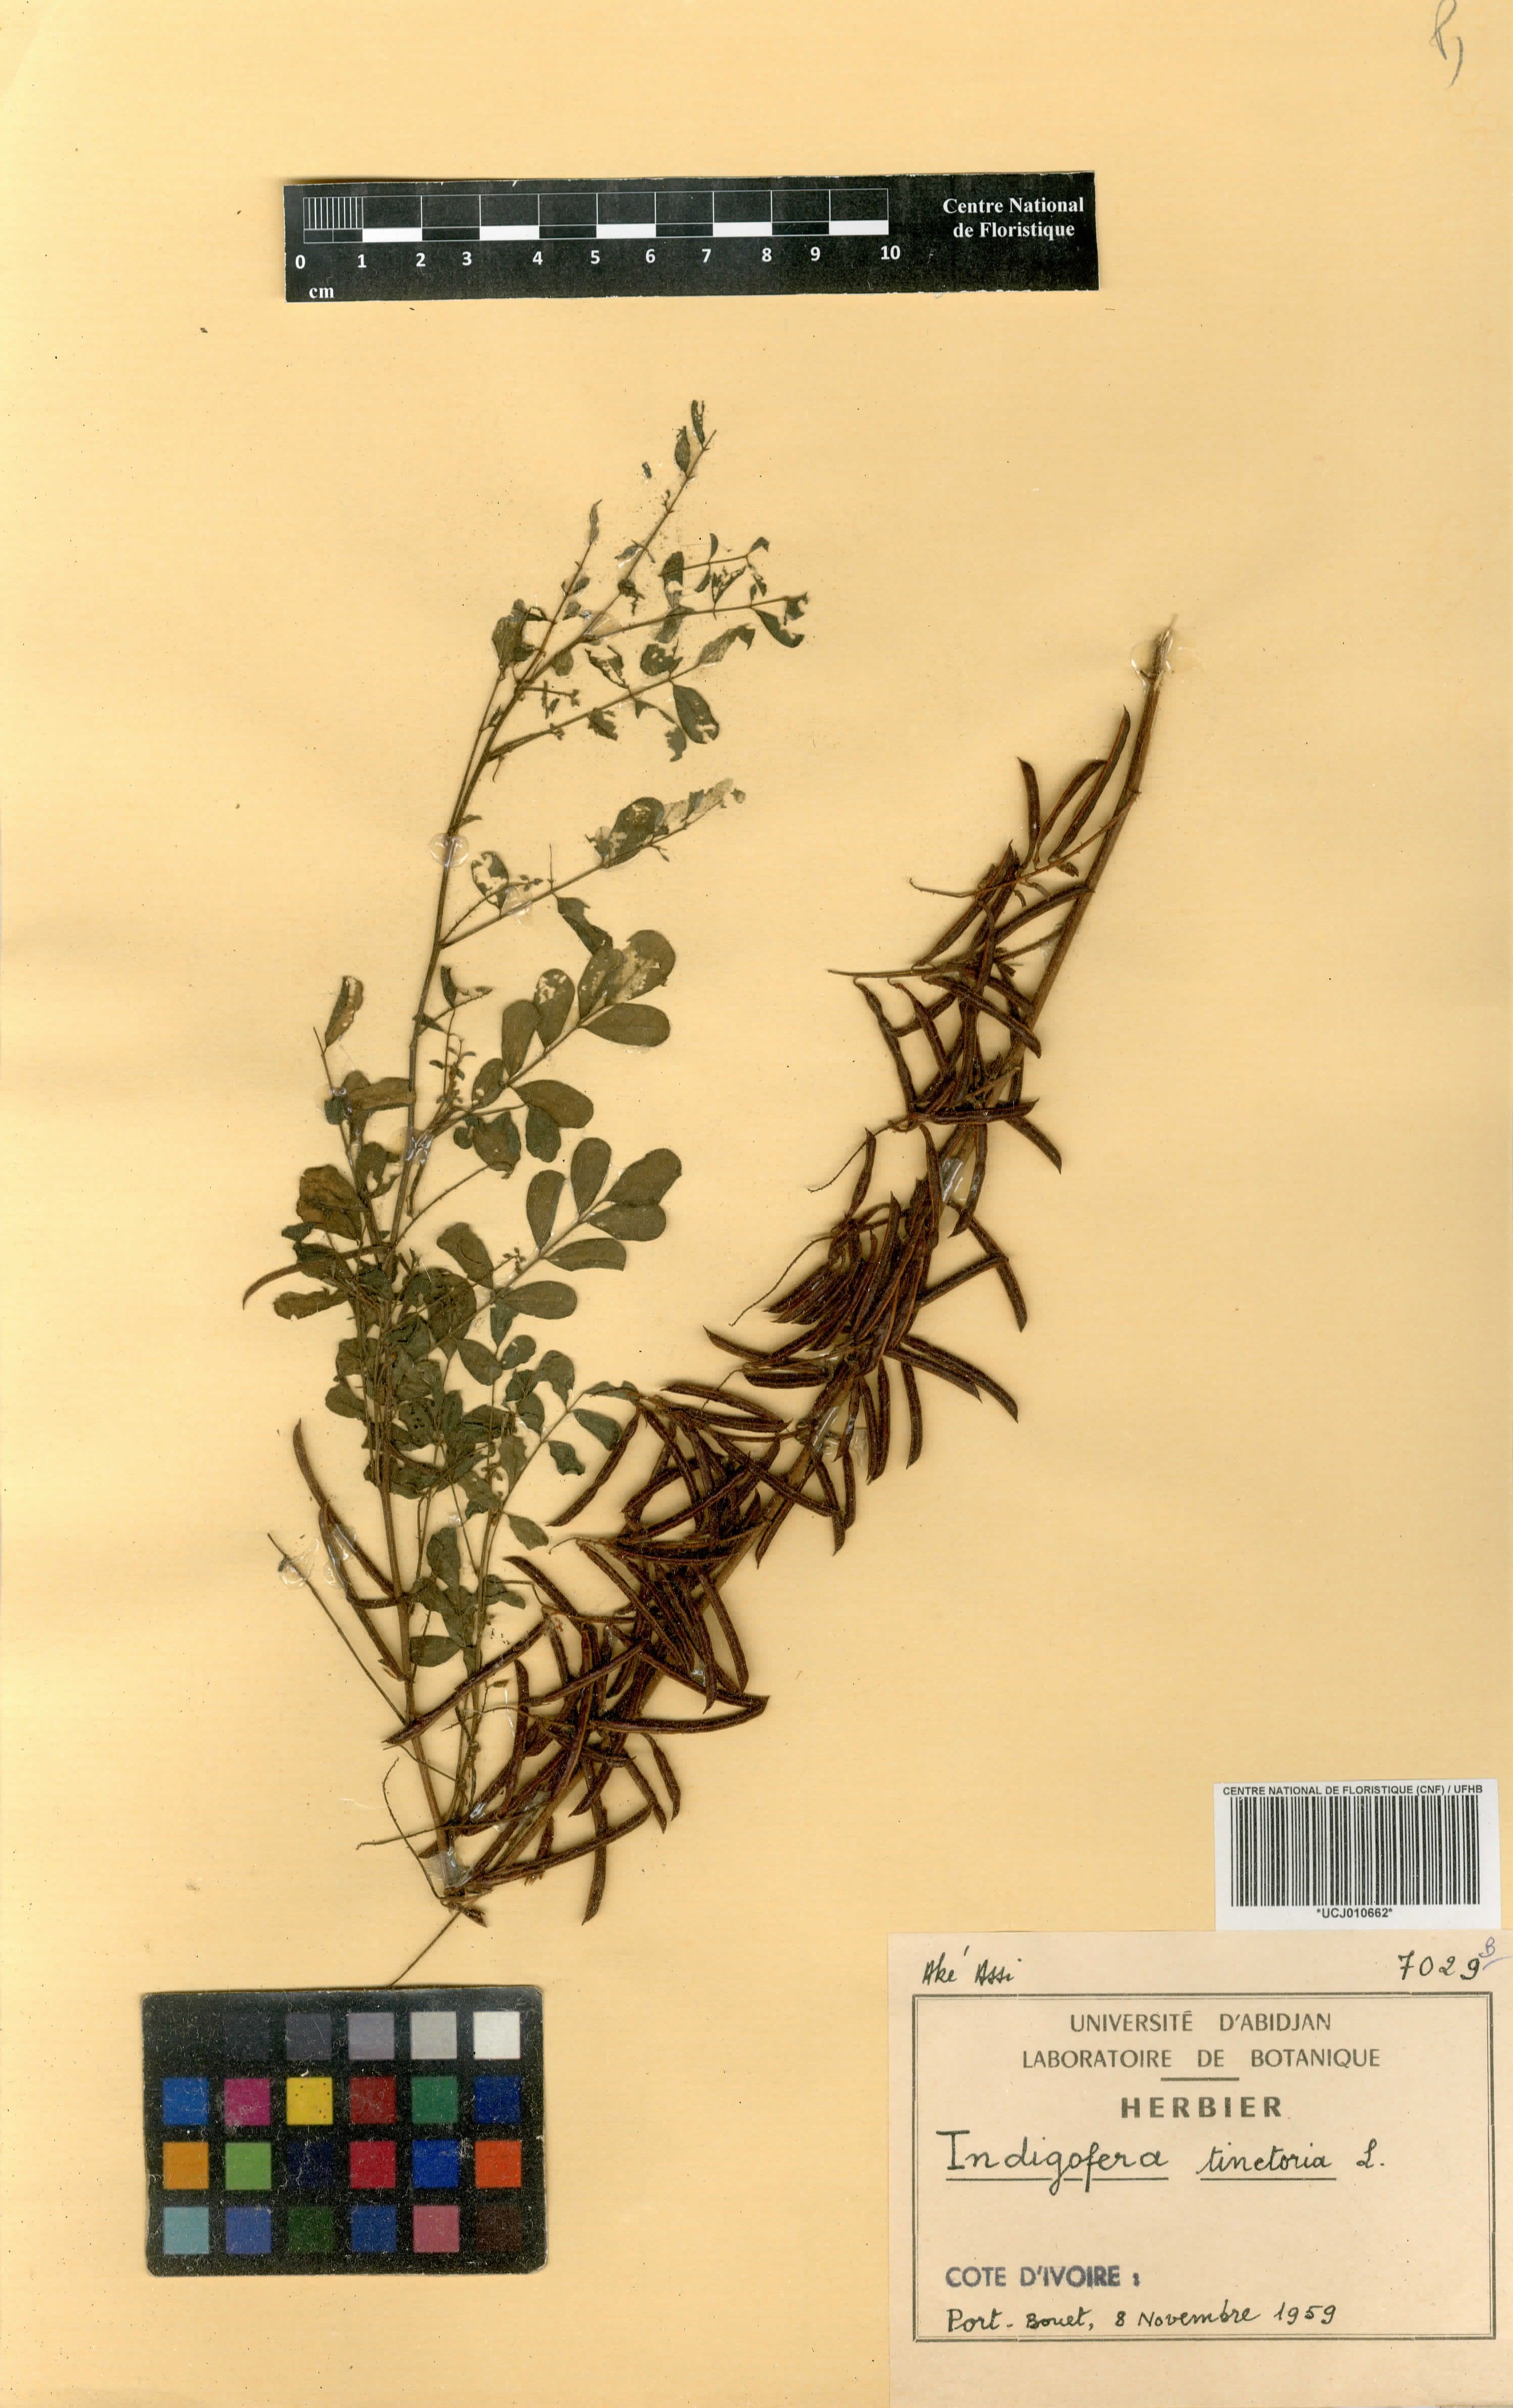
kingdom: Plantae
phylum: Tracheophyta
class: Magnoliopsida
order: Fabales
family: Fabaceae
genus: Indigofera
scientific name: Indigofera tinctoria
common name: True indigo
